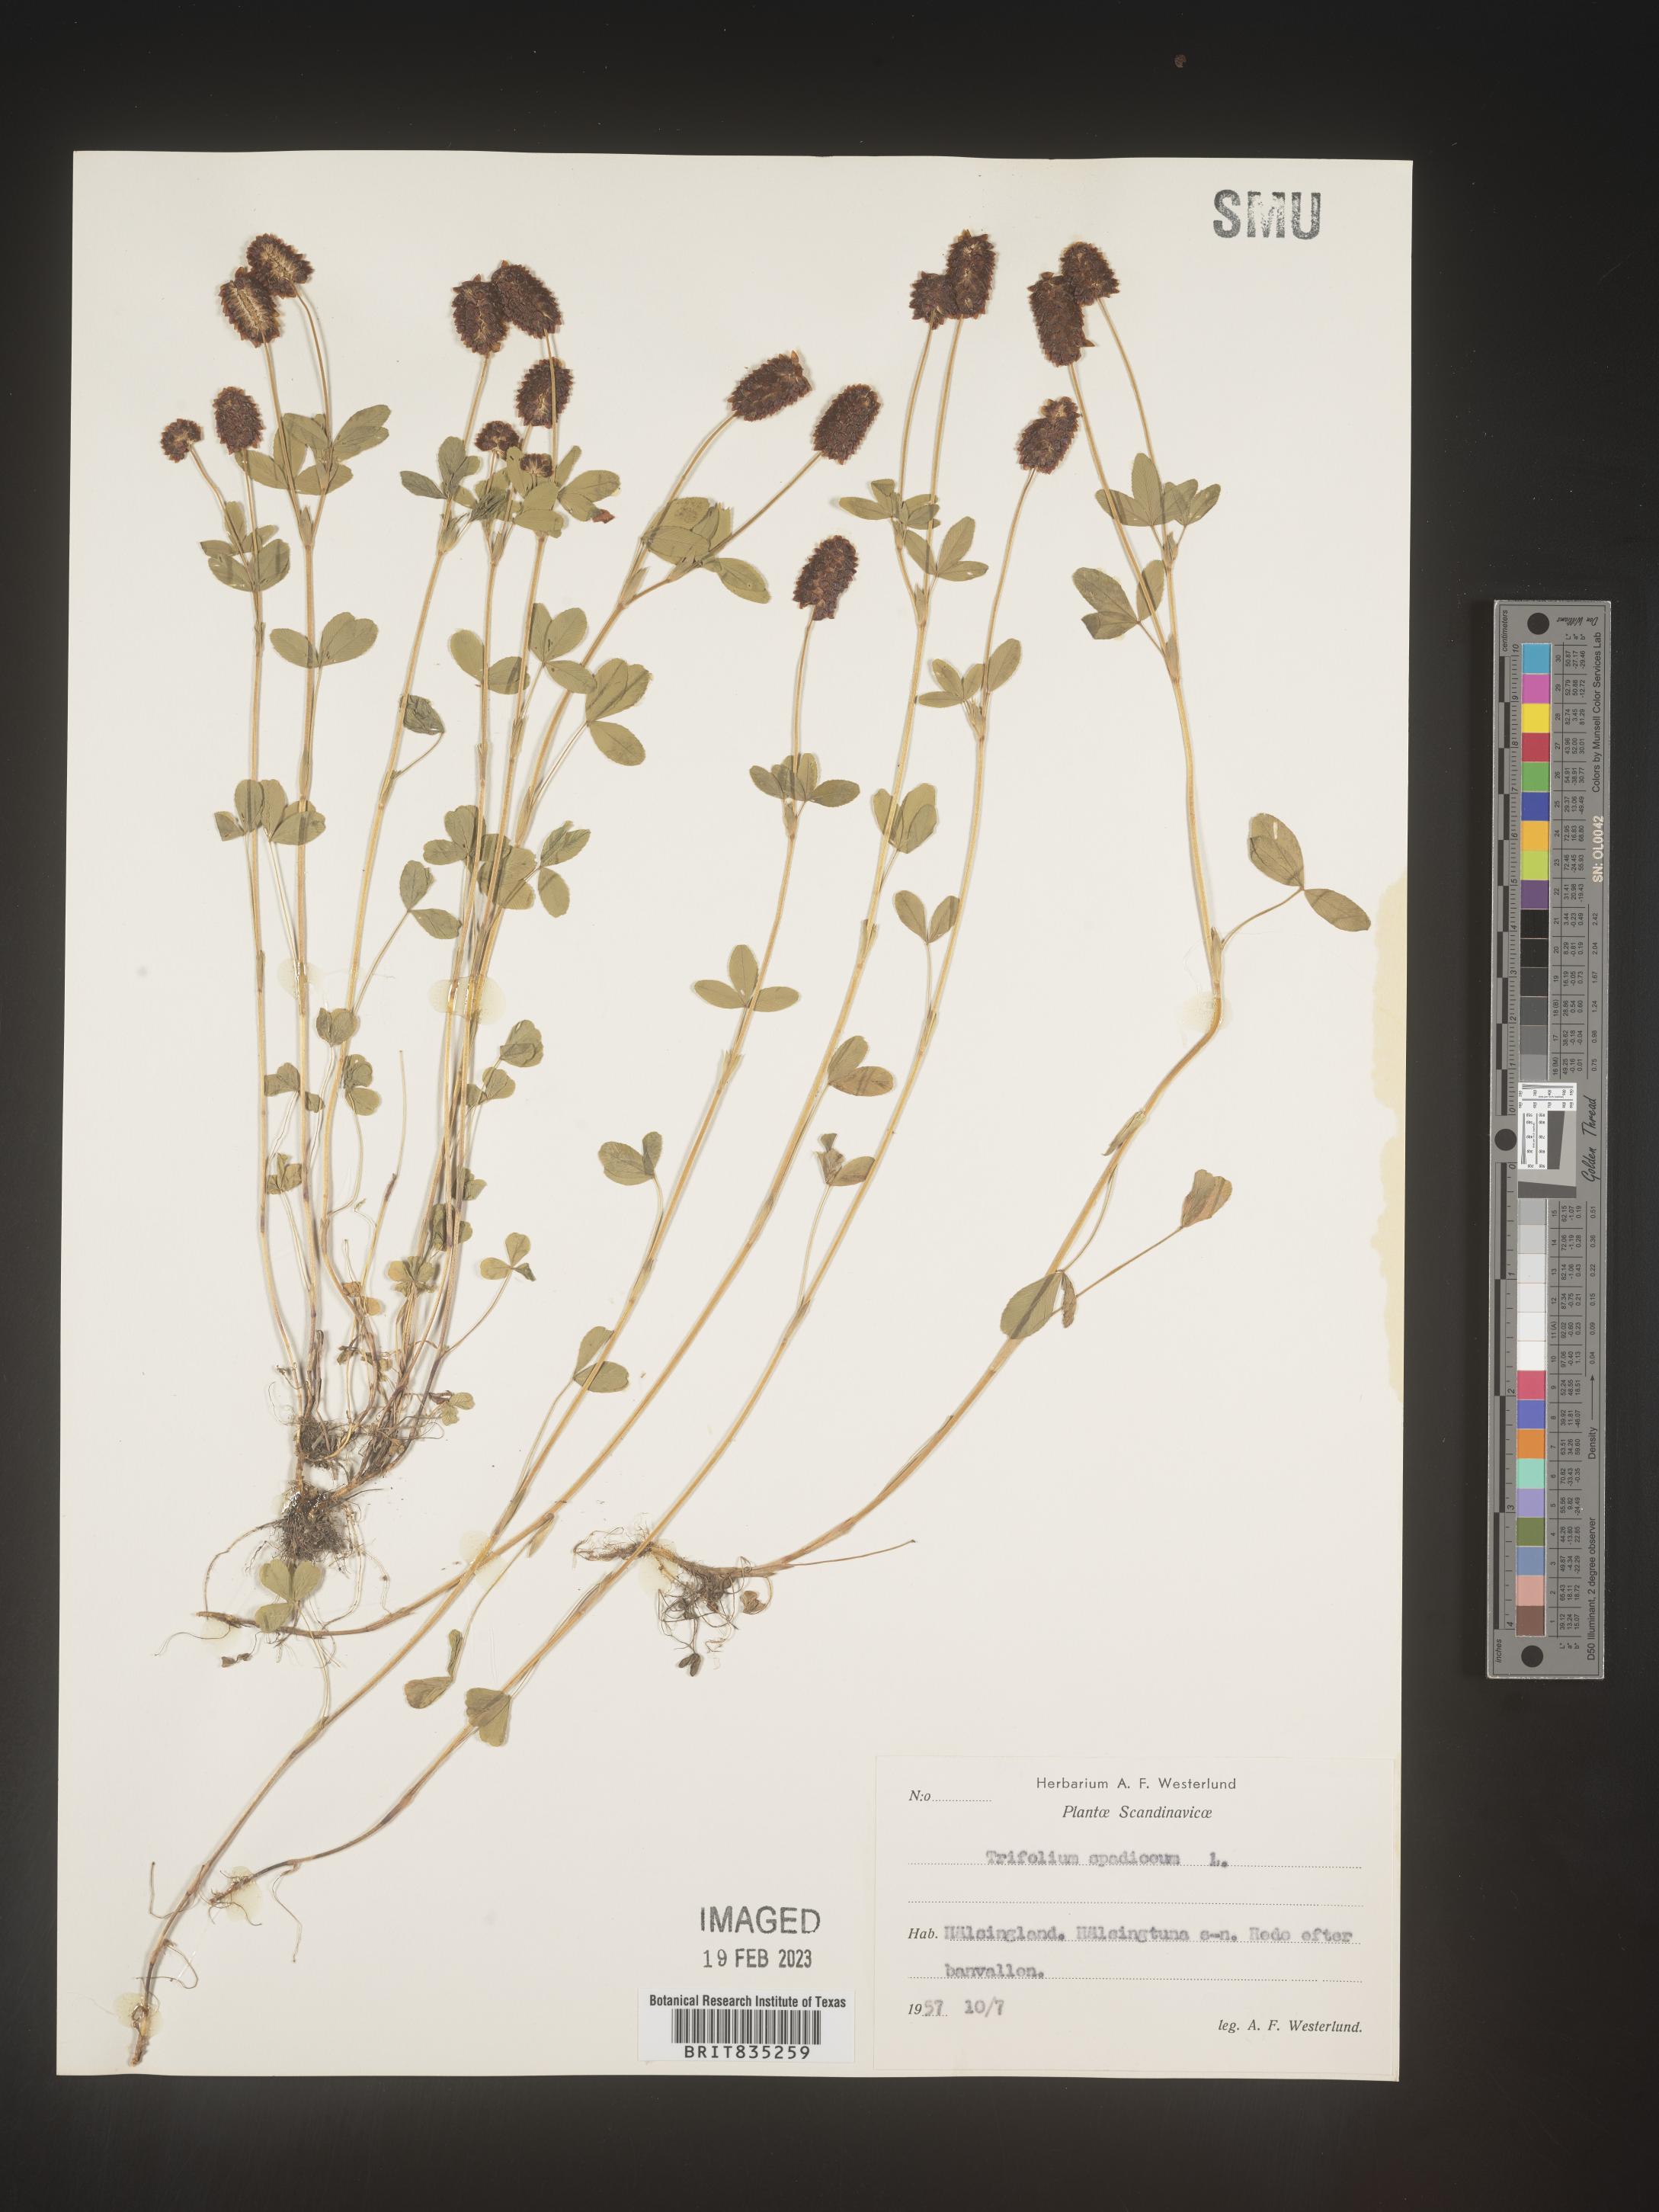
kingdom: Plantae
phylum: Tracheophyta
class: Magnoliopsida
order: Fabales
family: Fabaceae
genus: Trifolium
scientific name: Trifolium
